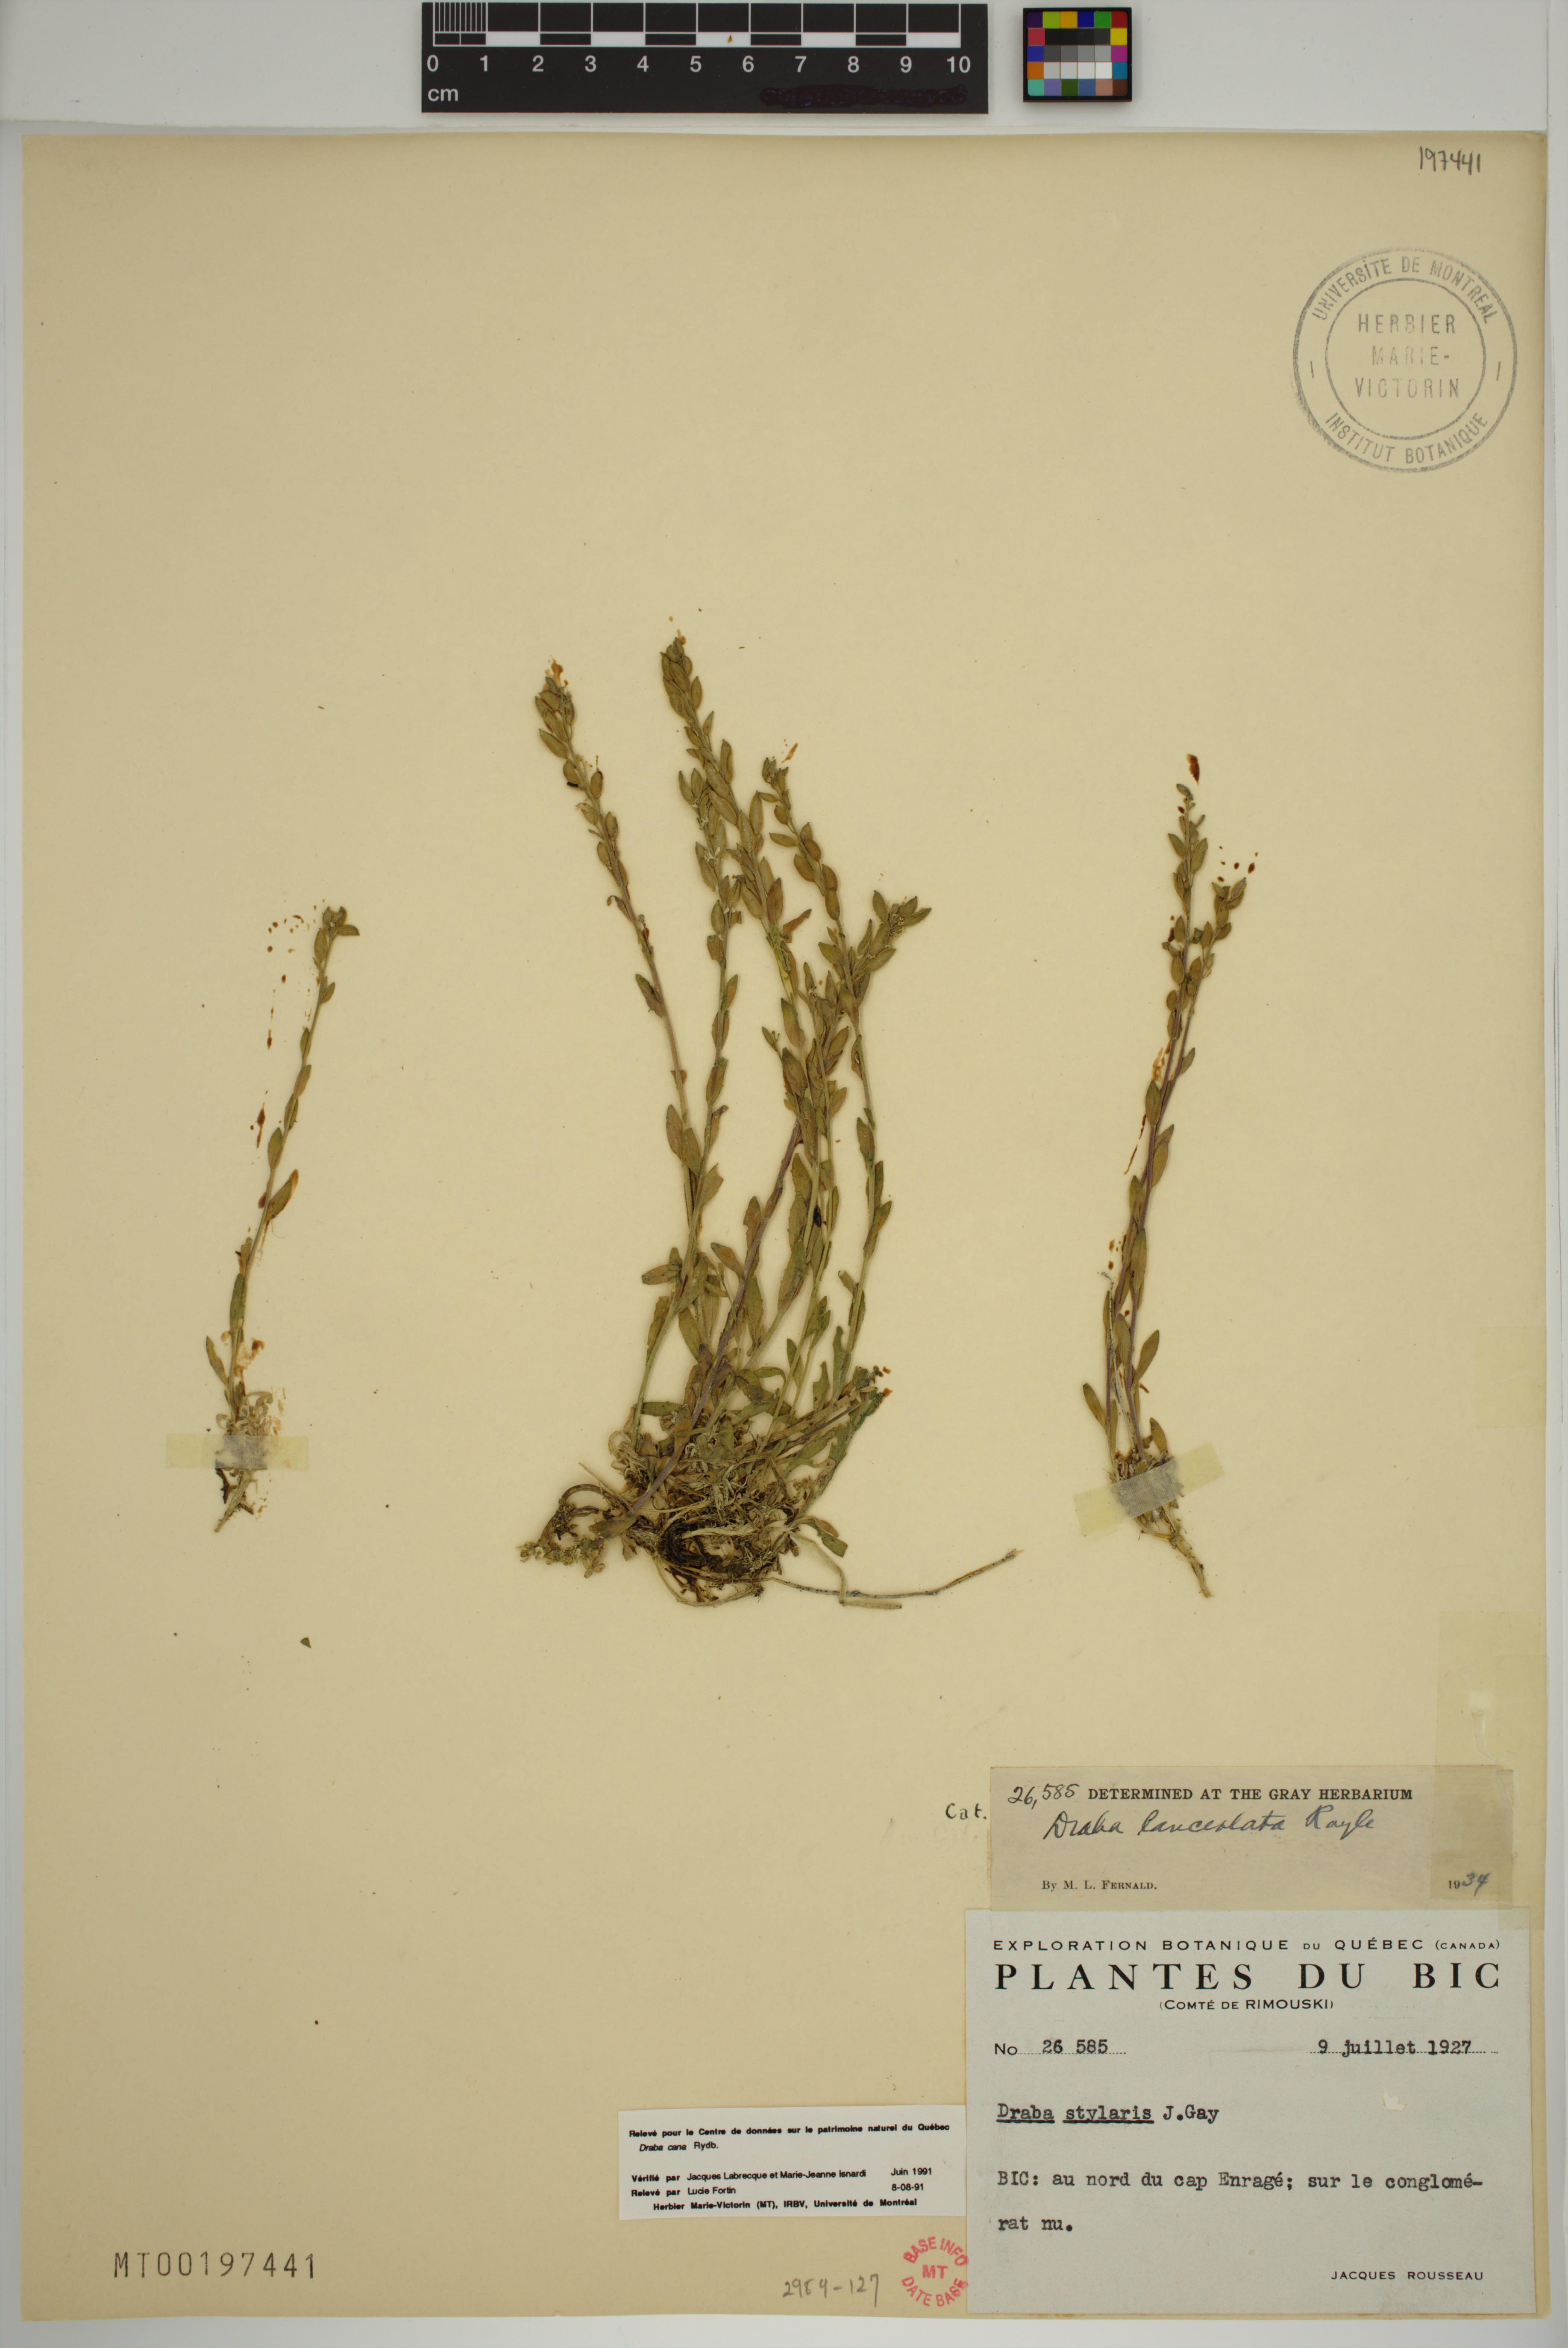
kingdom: Plantae
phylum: Tracheophyta
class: Magnoliopsida
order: Brassicales
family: Brassicaceae
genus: Draba
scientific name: Draba cana
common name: Hoary draba
